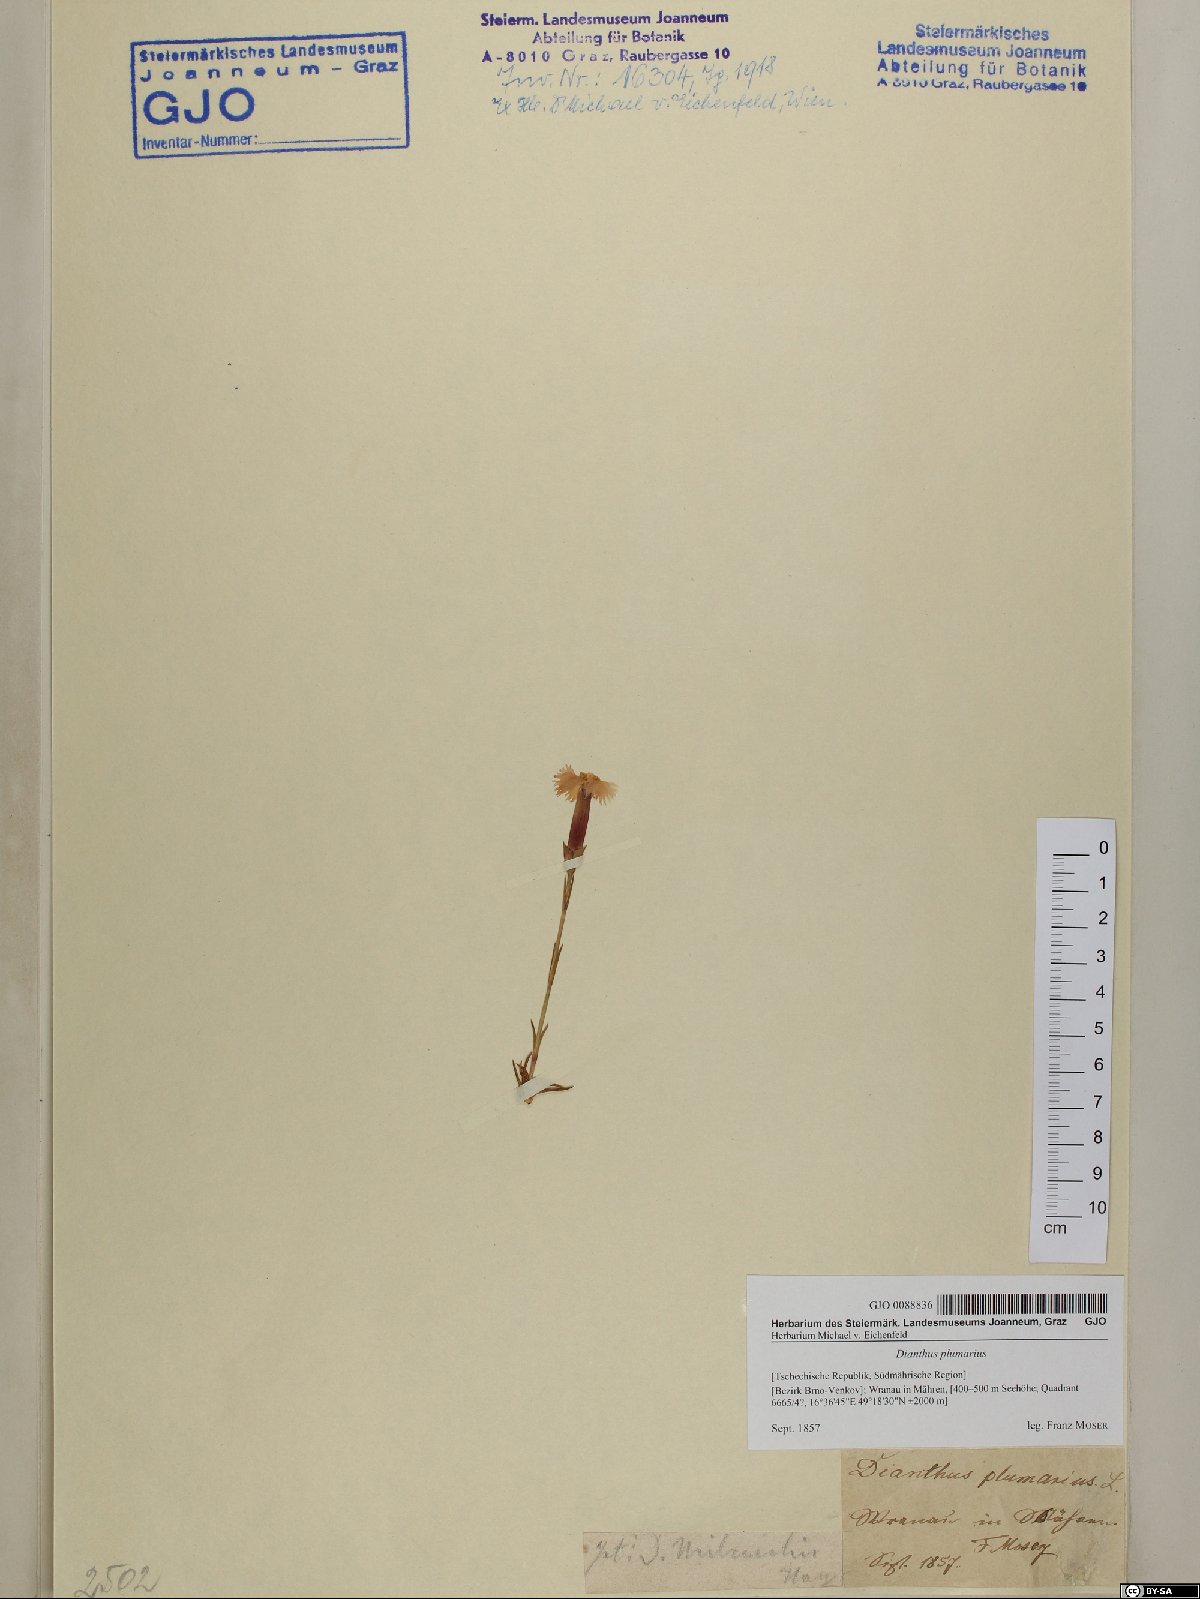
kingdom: Plantae
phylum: Tracheophyta
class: Magnoliopsida
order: Caryophyllales
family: Caryophyllaceae
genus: Dianthus
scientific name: Dianthus plumarius
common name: Pink
